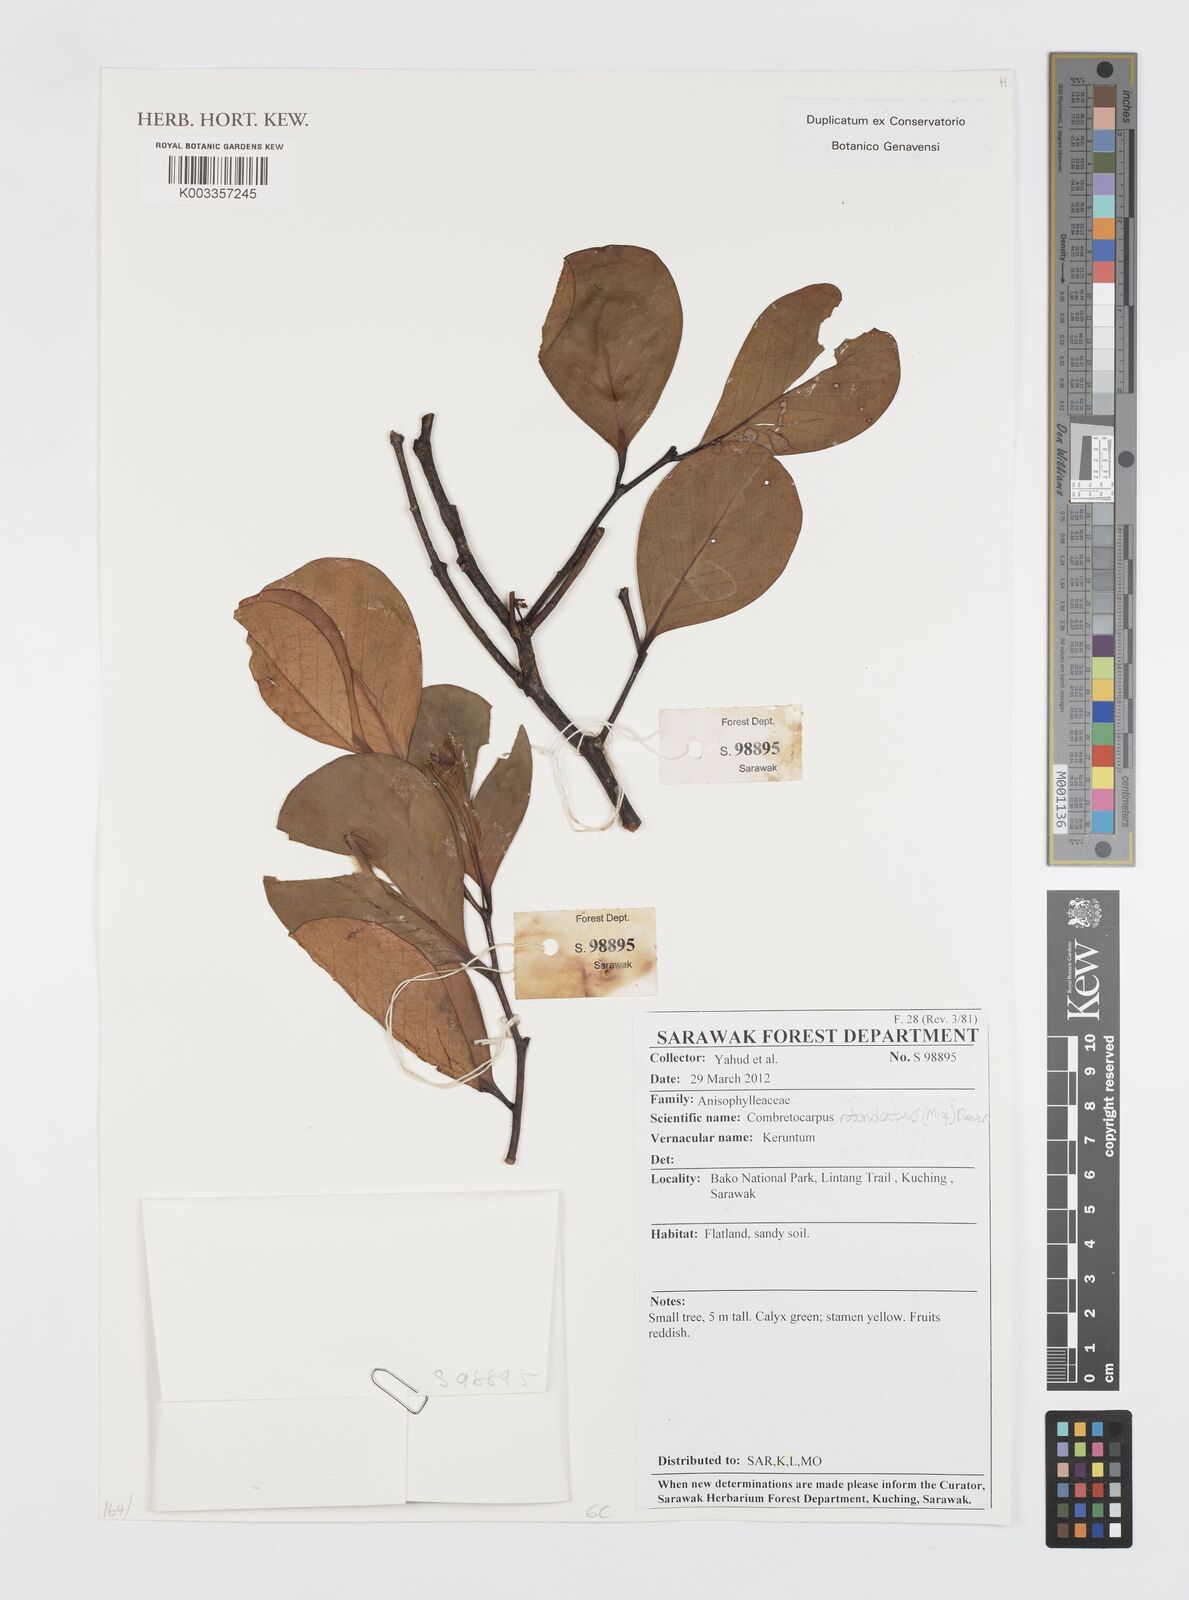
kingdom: Plantae
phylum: Tracheophyta
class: Magnoliopsida
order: Cucurbitales
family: Anisophylleaceae
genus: Combretocarpus
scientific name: Combretocarpus rotundatus
